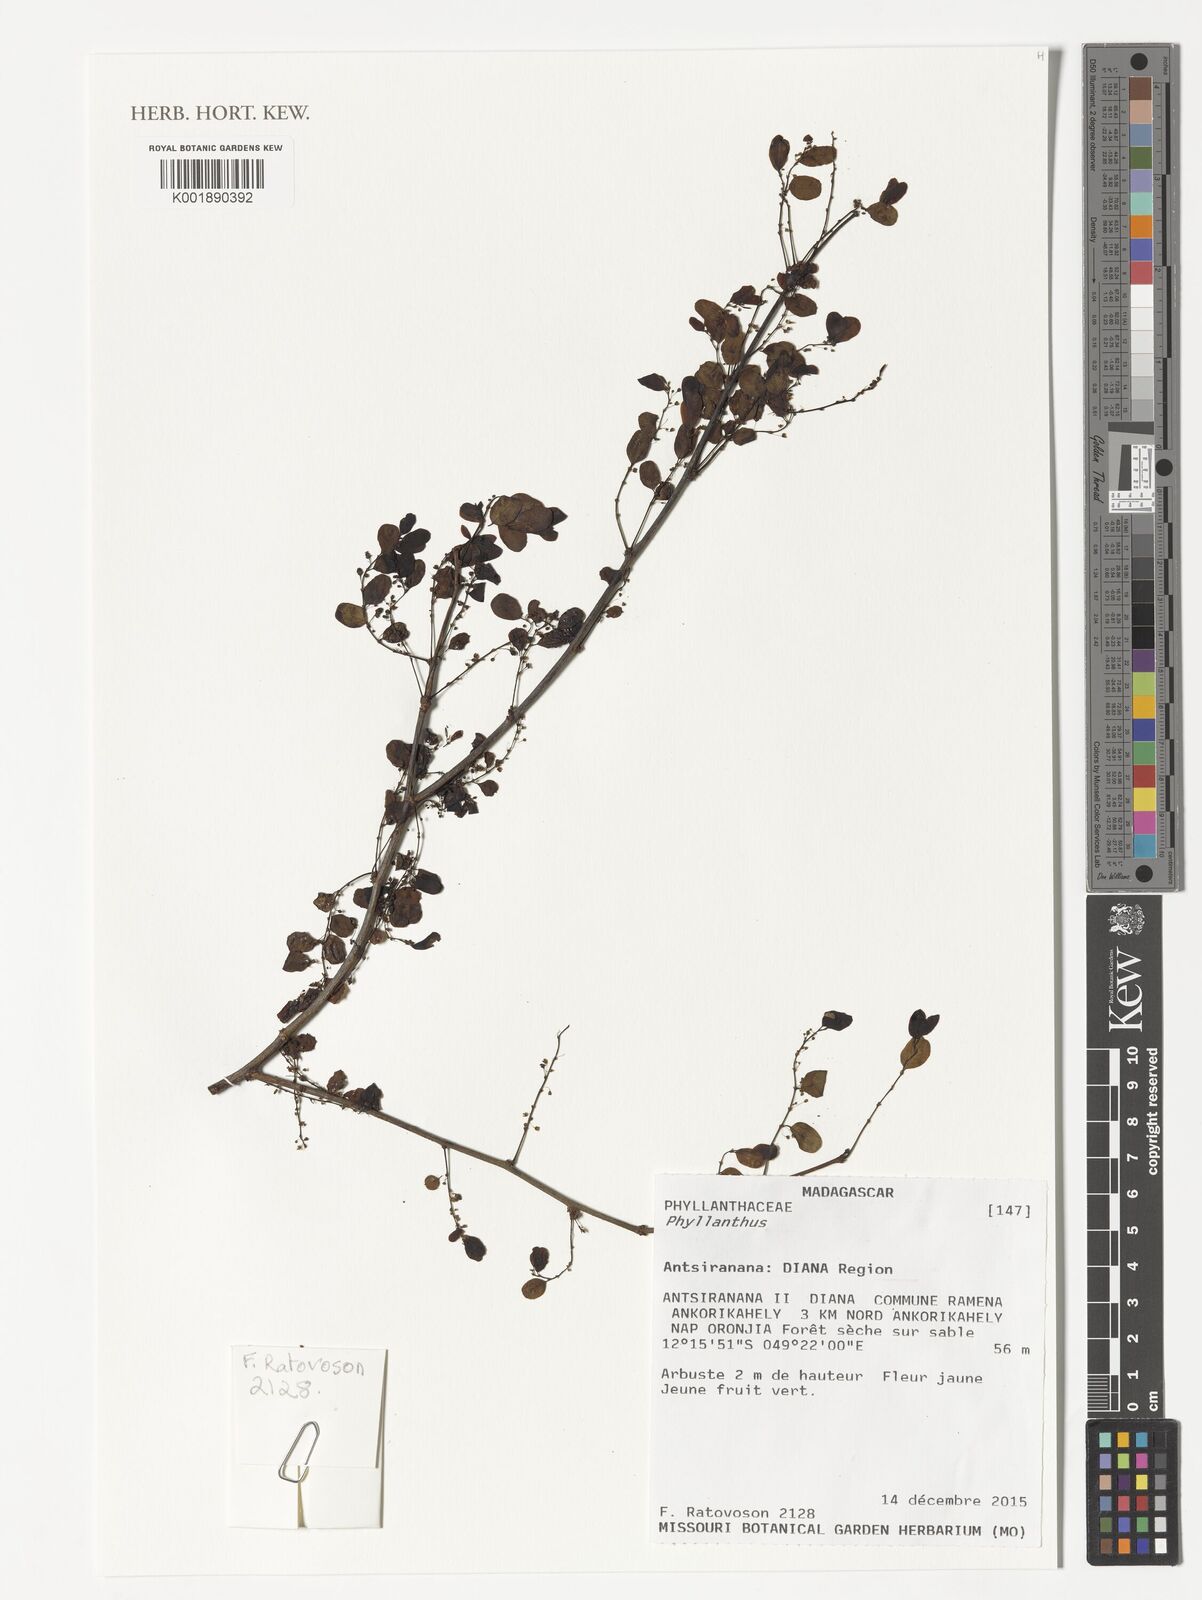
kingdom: Plantae
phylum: Tracheophyta
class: Magnoliopsida
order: Malpighiales
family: Phyllanthaceae
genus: Phyllanthus
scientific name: Phyllanthus
